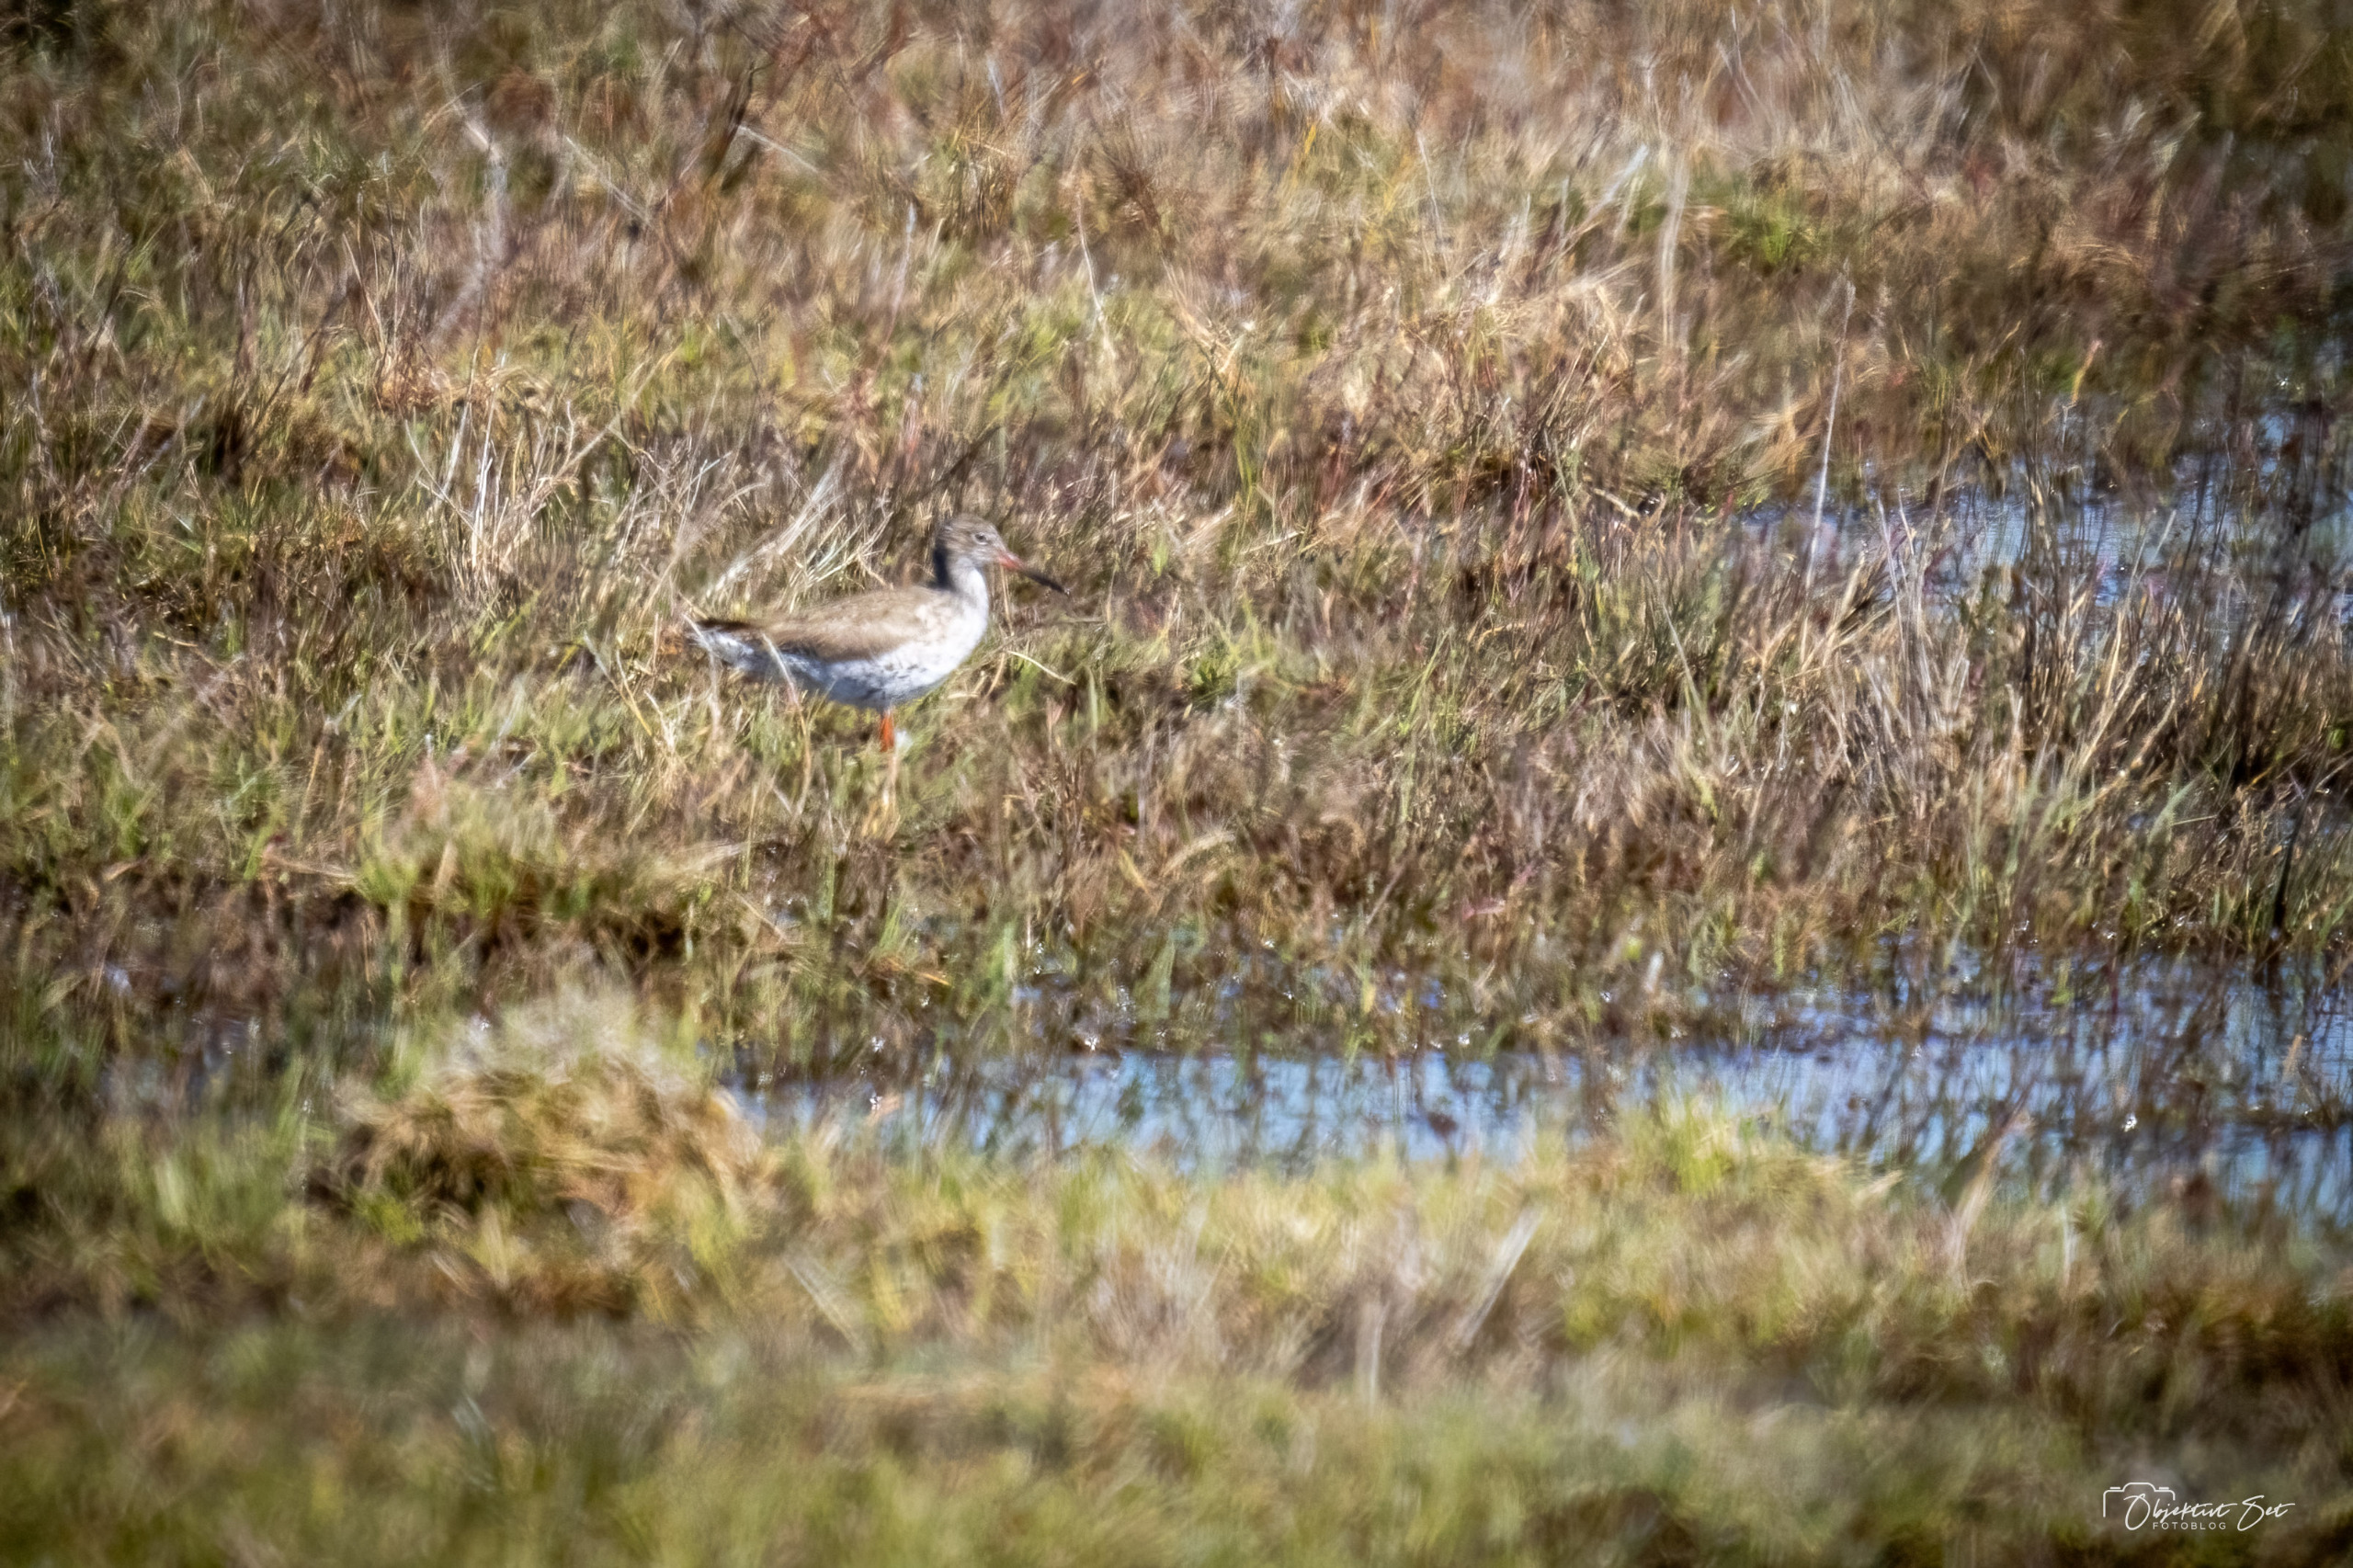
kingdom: Animalia
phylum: Chordata
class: Aves
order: Charadriiformes
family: Scolopacidae
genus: Tringa
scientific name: Tringa totanus
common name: Rødben
